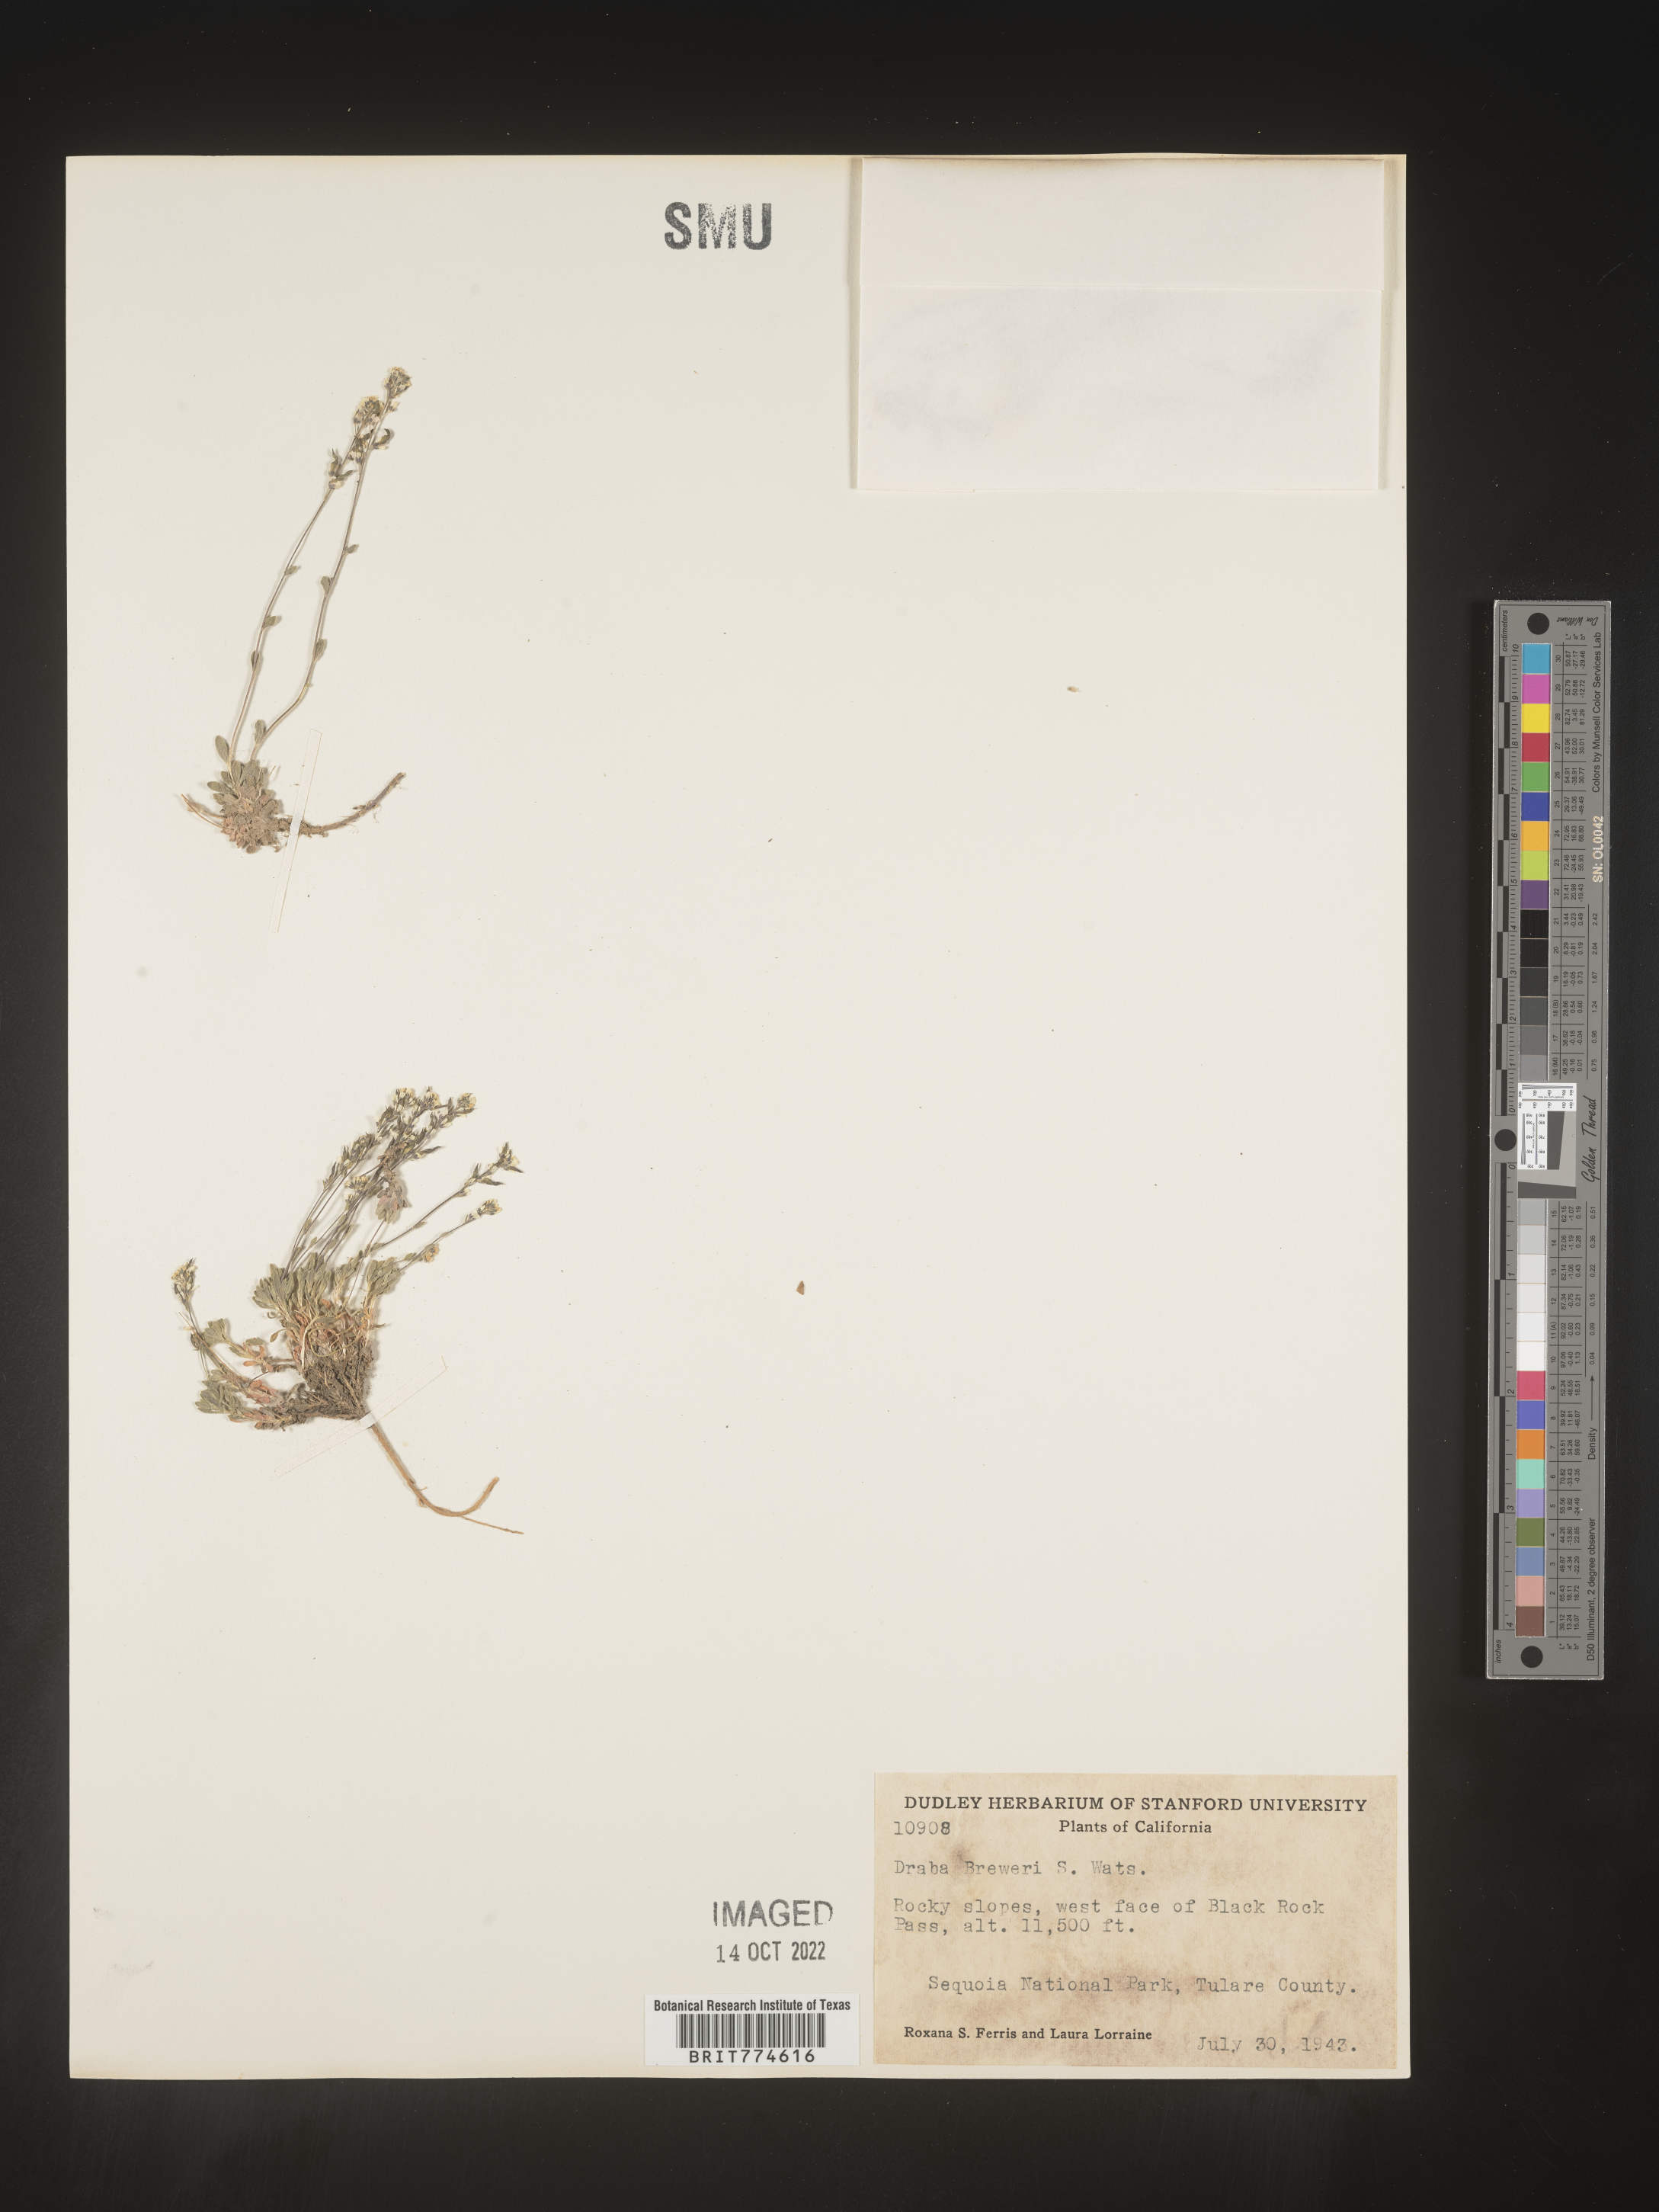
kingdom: Plantae
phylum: Tracheophyta
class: Magnoliopsida
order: Brassicales
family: Brassicaceae
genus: Draba
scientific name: Draba
